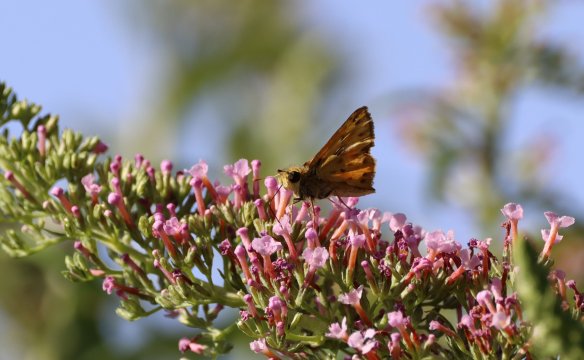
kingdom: Animalia
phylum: Arthropoda
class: Insecta
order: Lepidoptera
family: Hesperiidae
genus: Hylephila
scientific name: Hylephila phyleus
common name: Fiery Skipper
